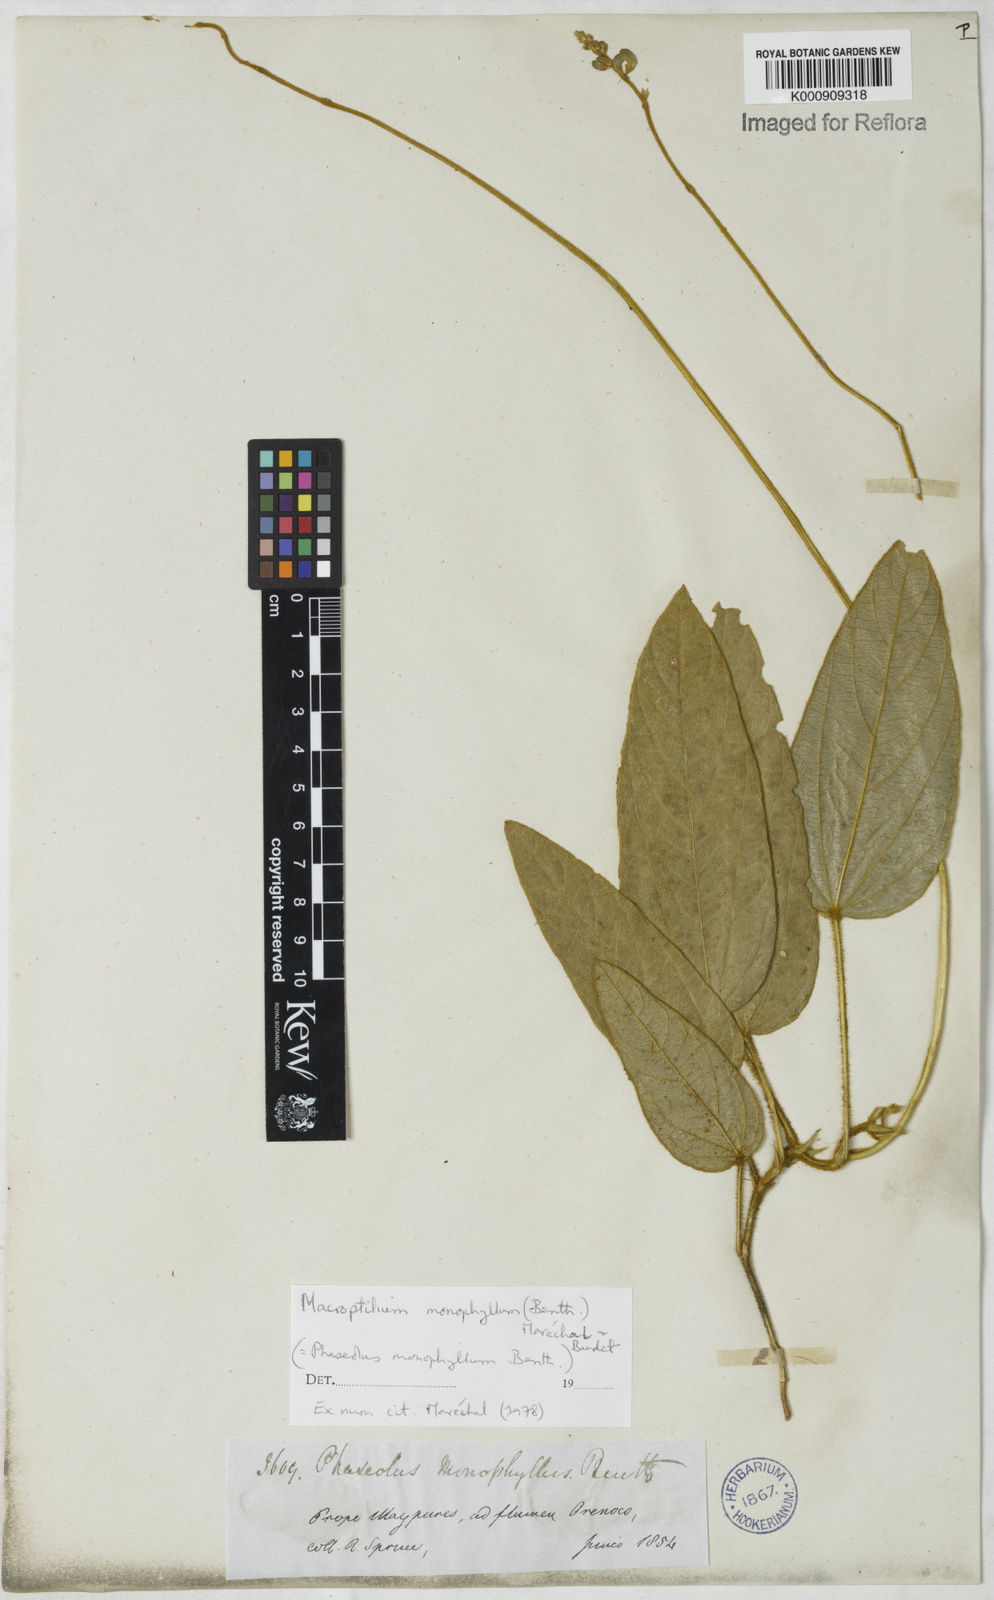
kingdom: Plantae
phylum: Tracheophyta
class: Magnoliopsida
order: Fabales
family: Fabaceae
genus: Macroptilium
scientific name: Macroptilium monophyllum
